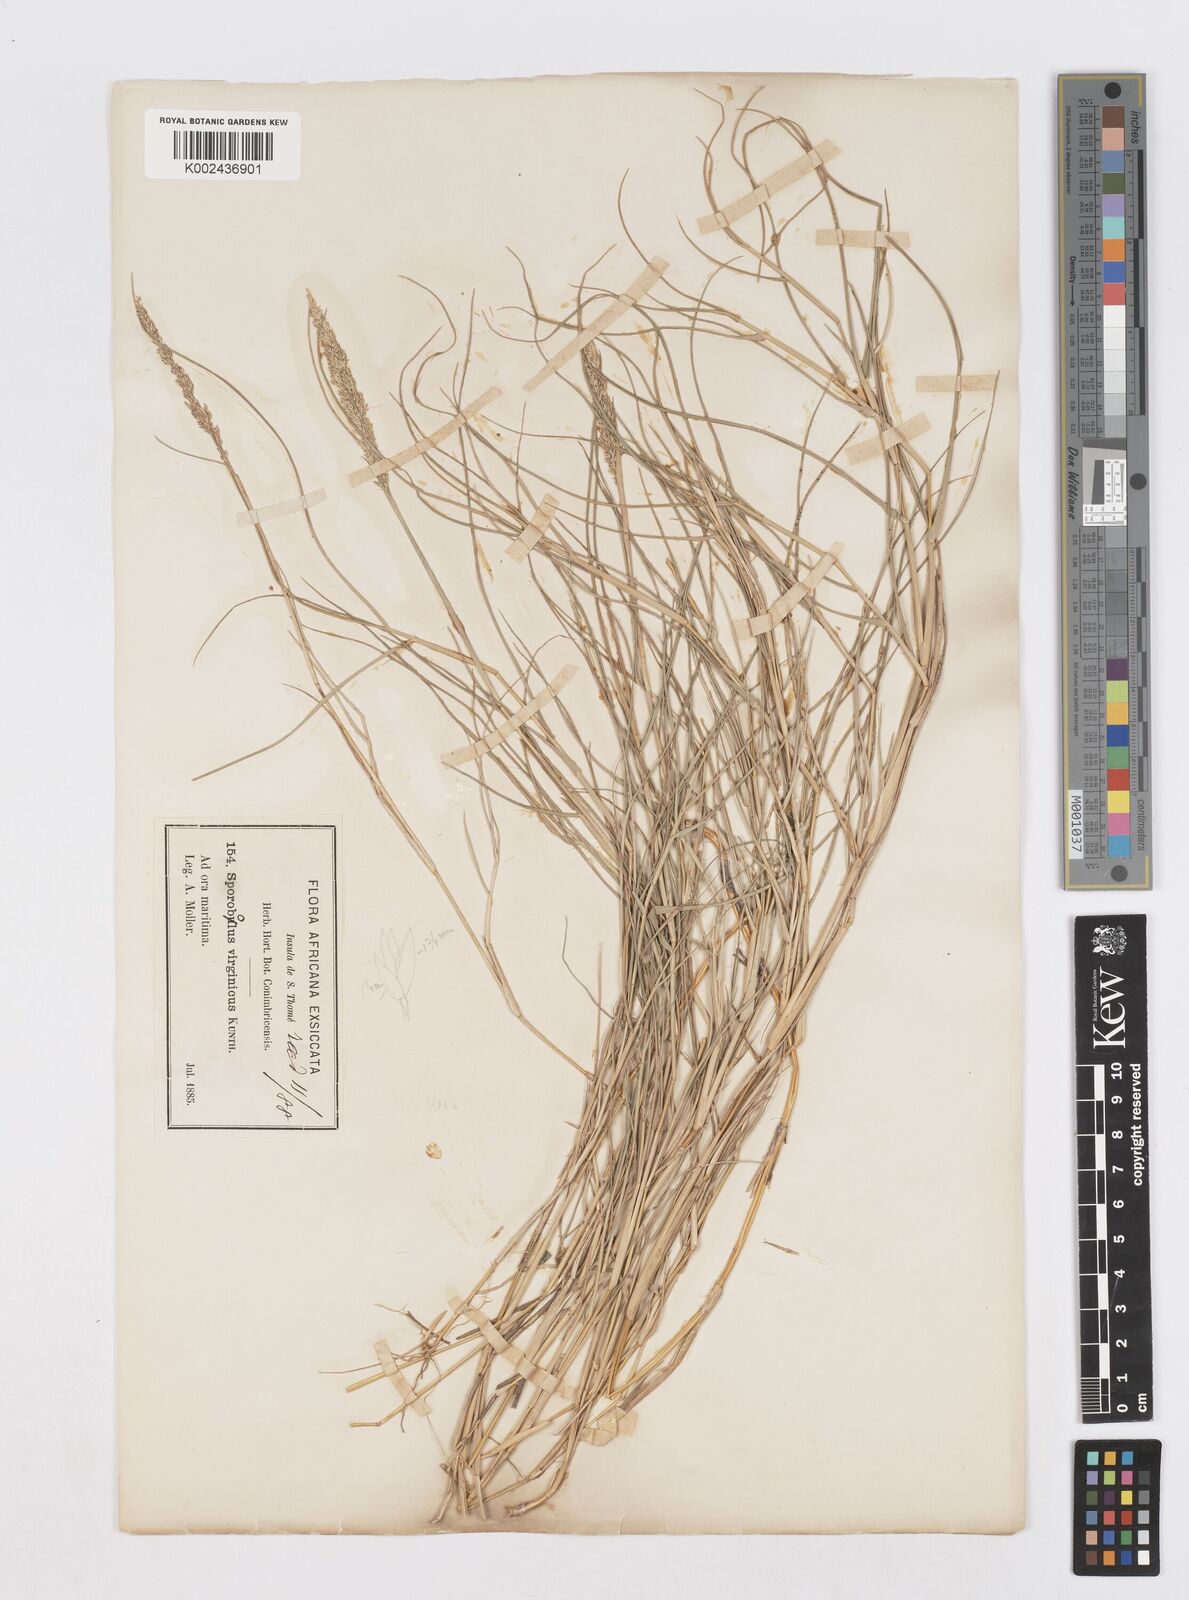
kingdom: Plantae
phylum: Tracheophyta
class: Liliopsida
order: Poales
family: Poaceae
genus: Sporobolus
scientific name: Sporobolus virginicus
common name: Beach dropseed
